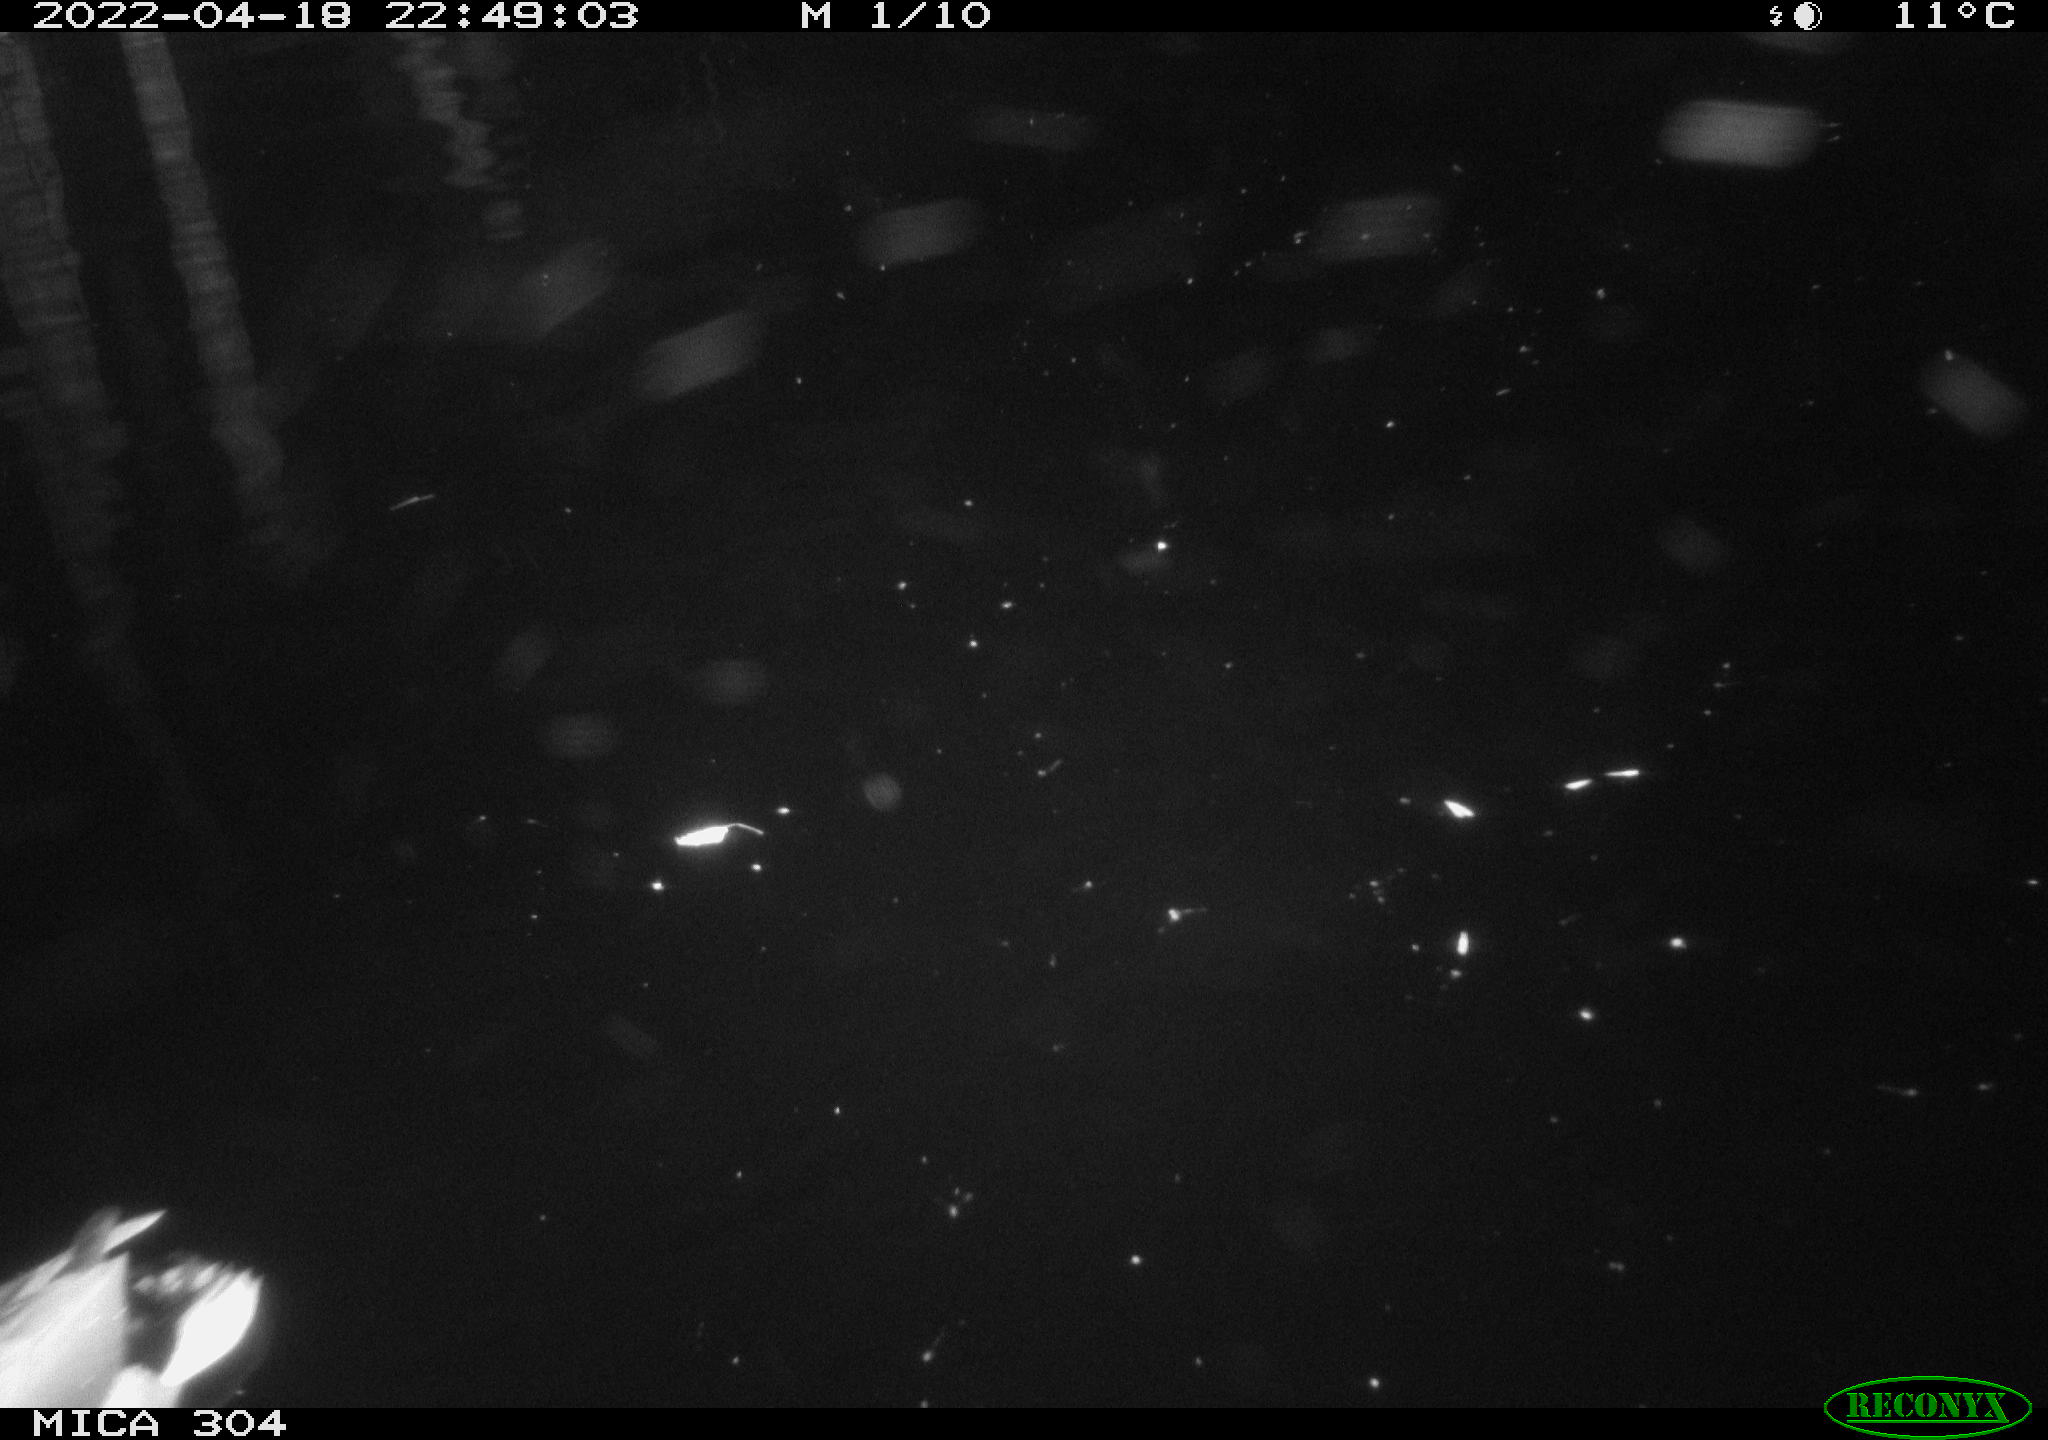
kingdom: Animalia
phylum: Chordata
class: Aves
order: Anseriformes
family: Anatidae
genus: Anas
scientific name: Anas platyrhynchos
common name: Mallard
